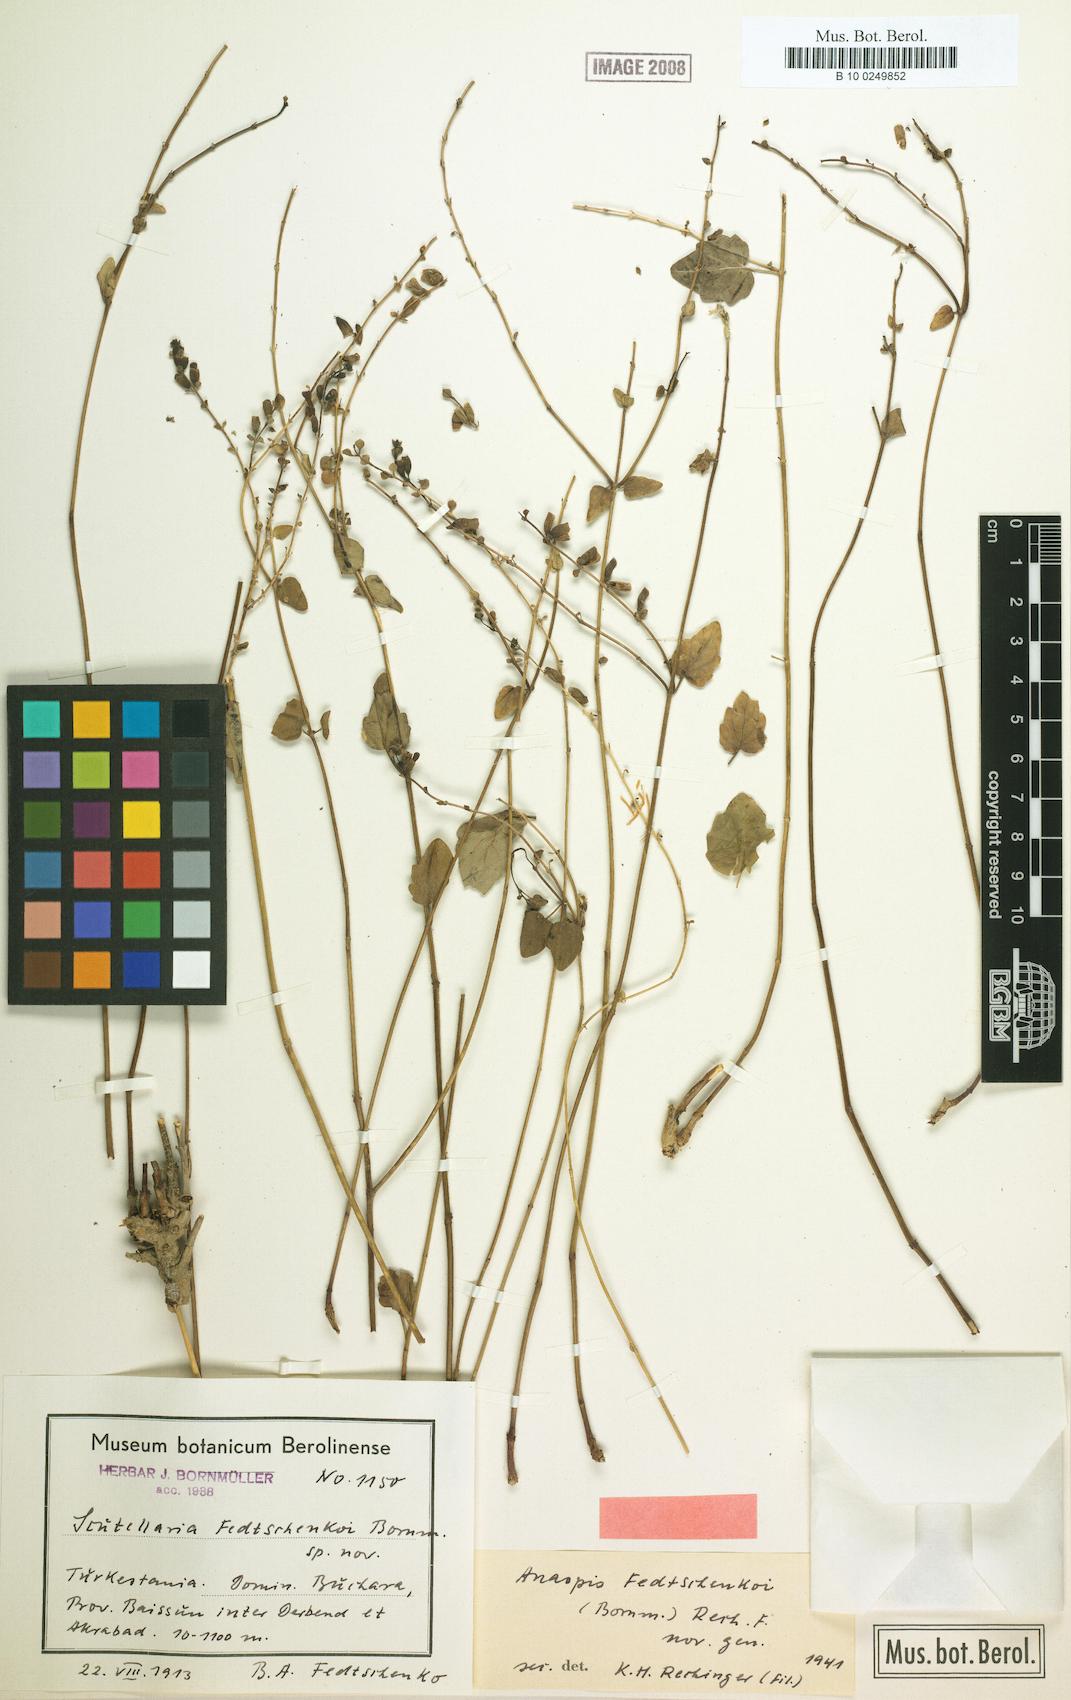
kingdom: Plantae
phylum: Tracheophyta
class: Magnoliopsida
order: Lamiales
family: Lamiaceae
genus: Scutellaria
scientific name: Scutellaria fedtschenkoi
